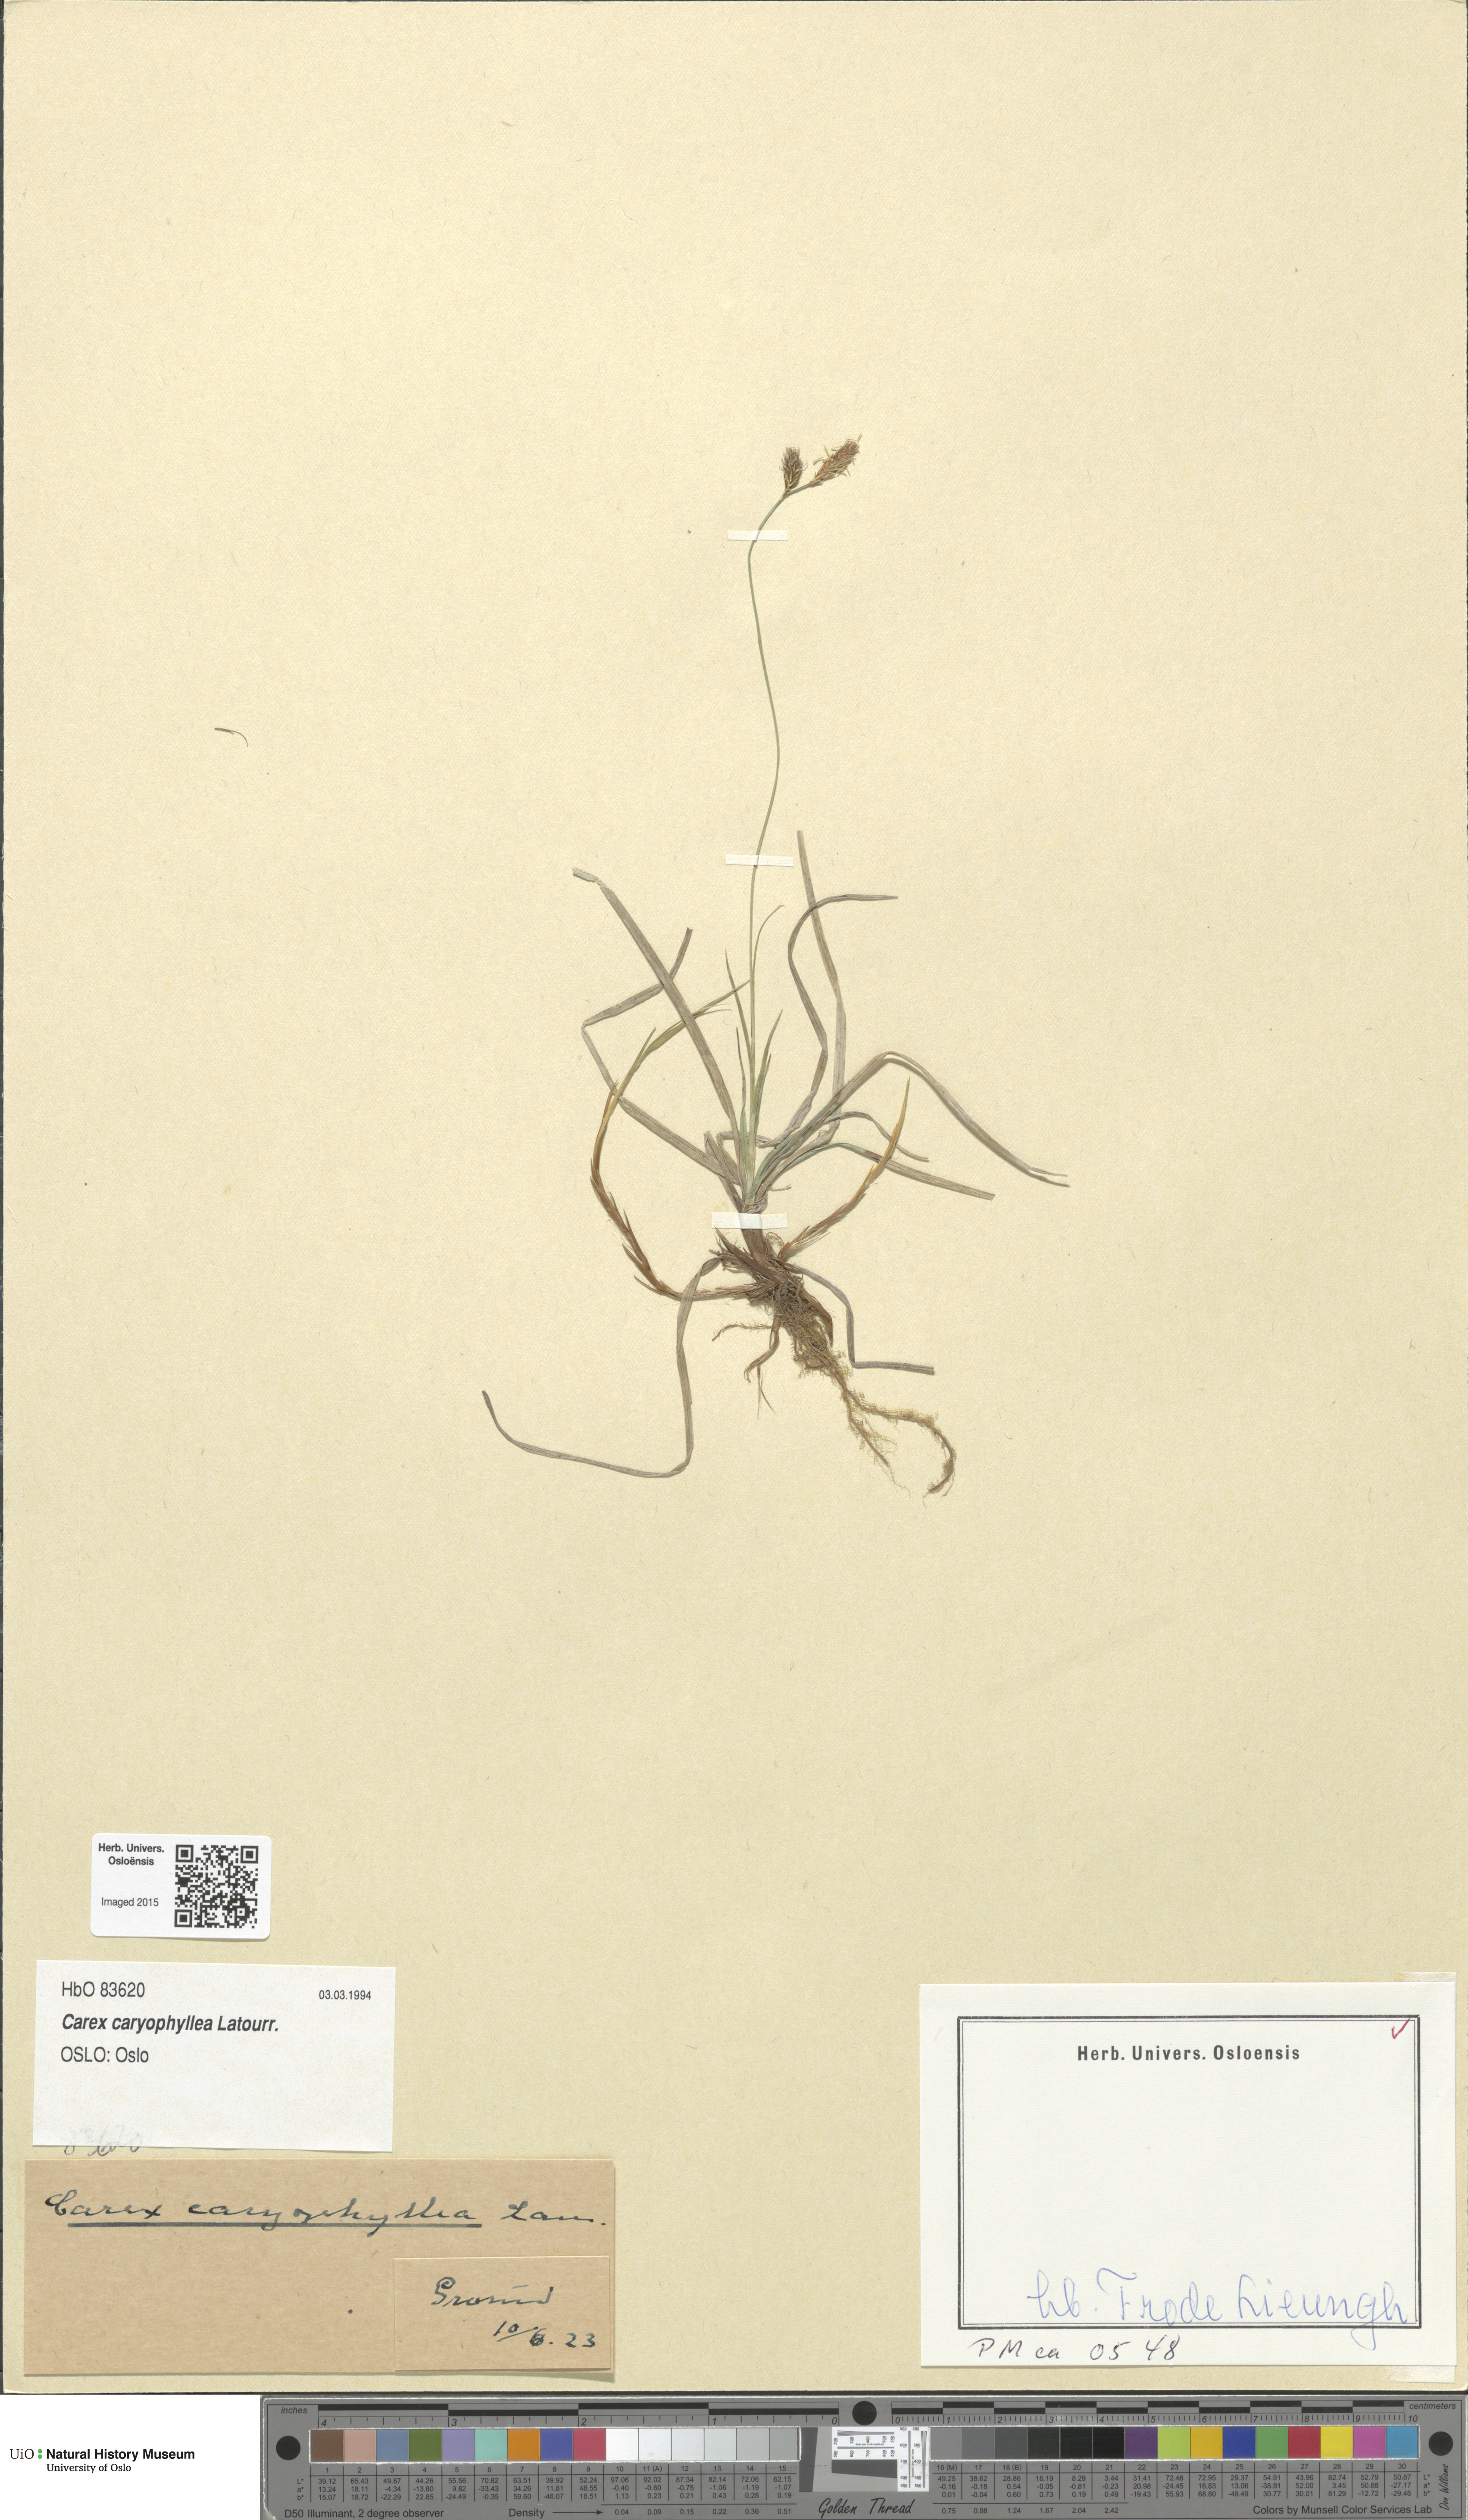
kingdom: Plantae
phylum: Tracheophyta
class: Liliopsida
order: Poales
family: Cyperaceae
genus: Carex
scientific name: Carex caryophyllea
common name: Spring sedge
